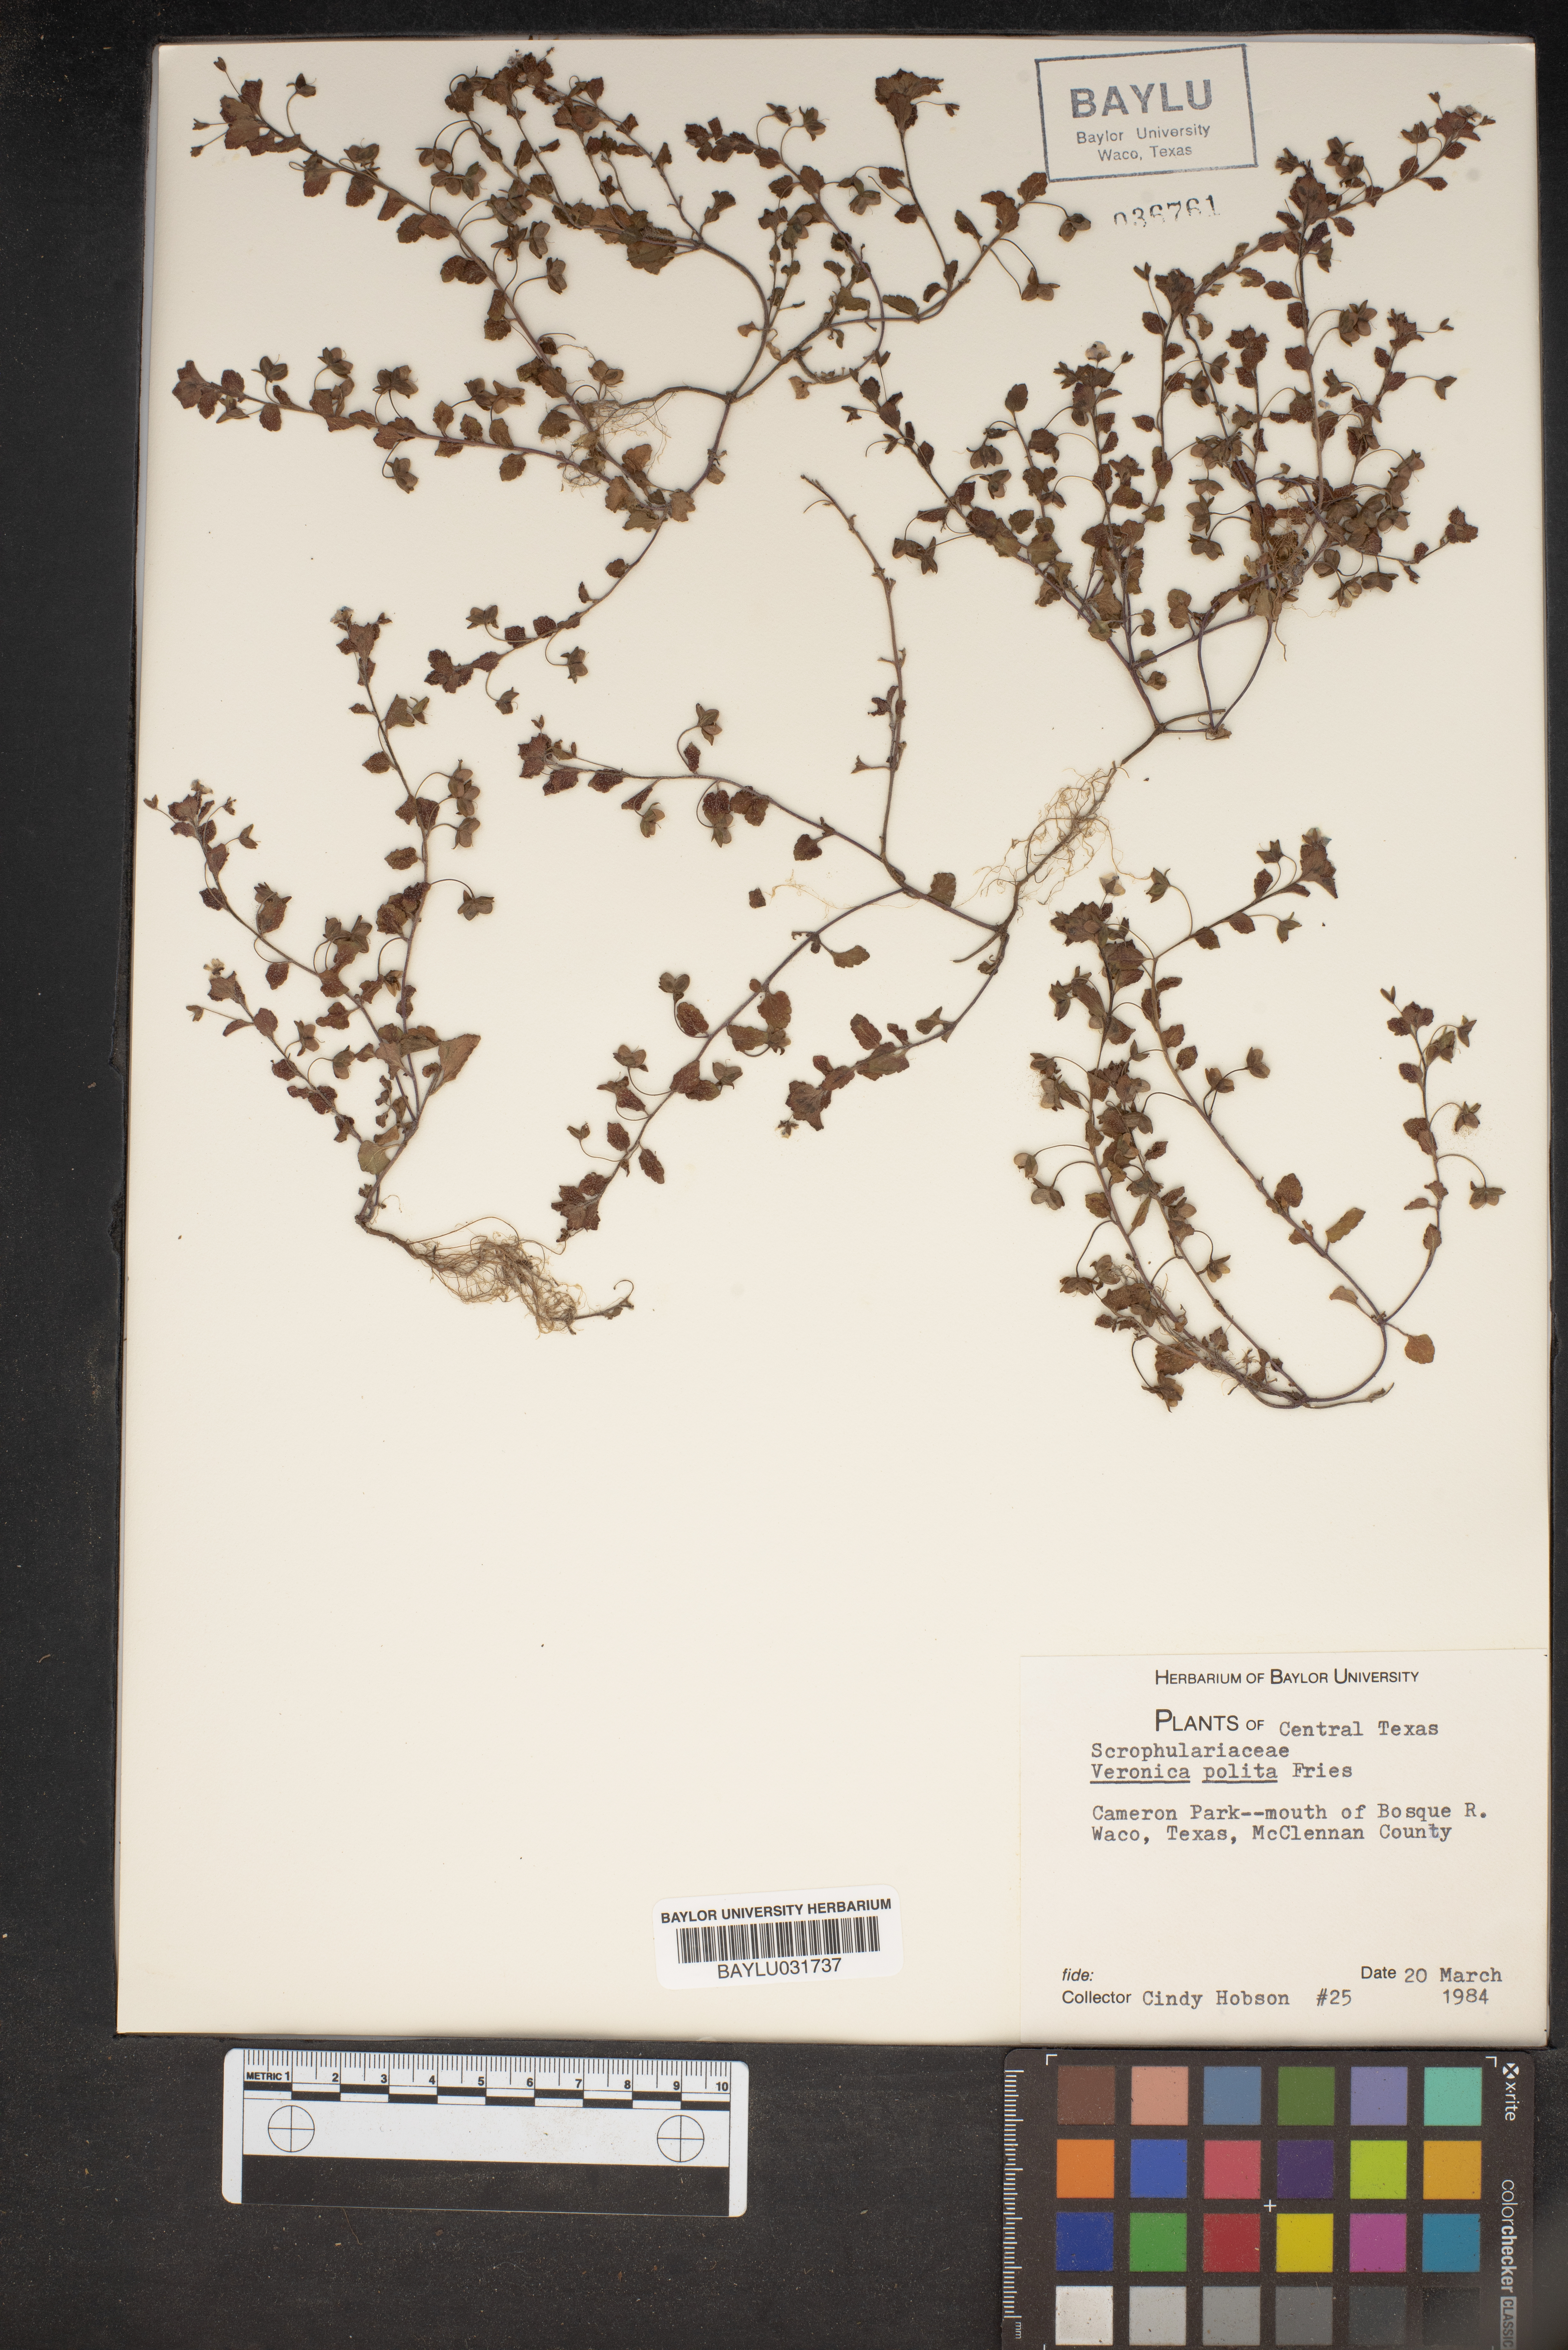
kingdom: Plantae
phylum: Tracheophyta
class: Magnoliopsida
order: Lamiales
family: Plantaginaceae
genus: Veronica
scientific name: Veronica polita
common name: Grey field-speedwell
